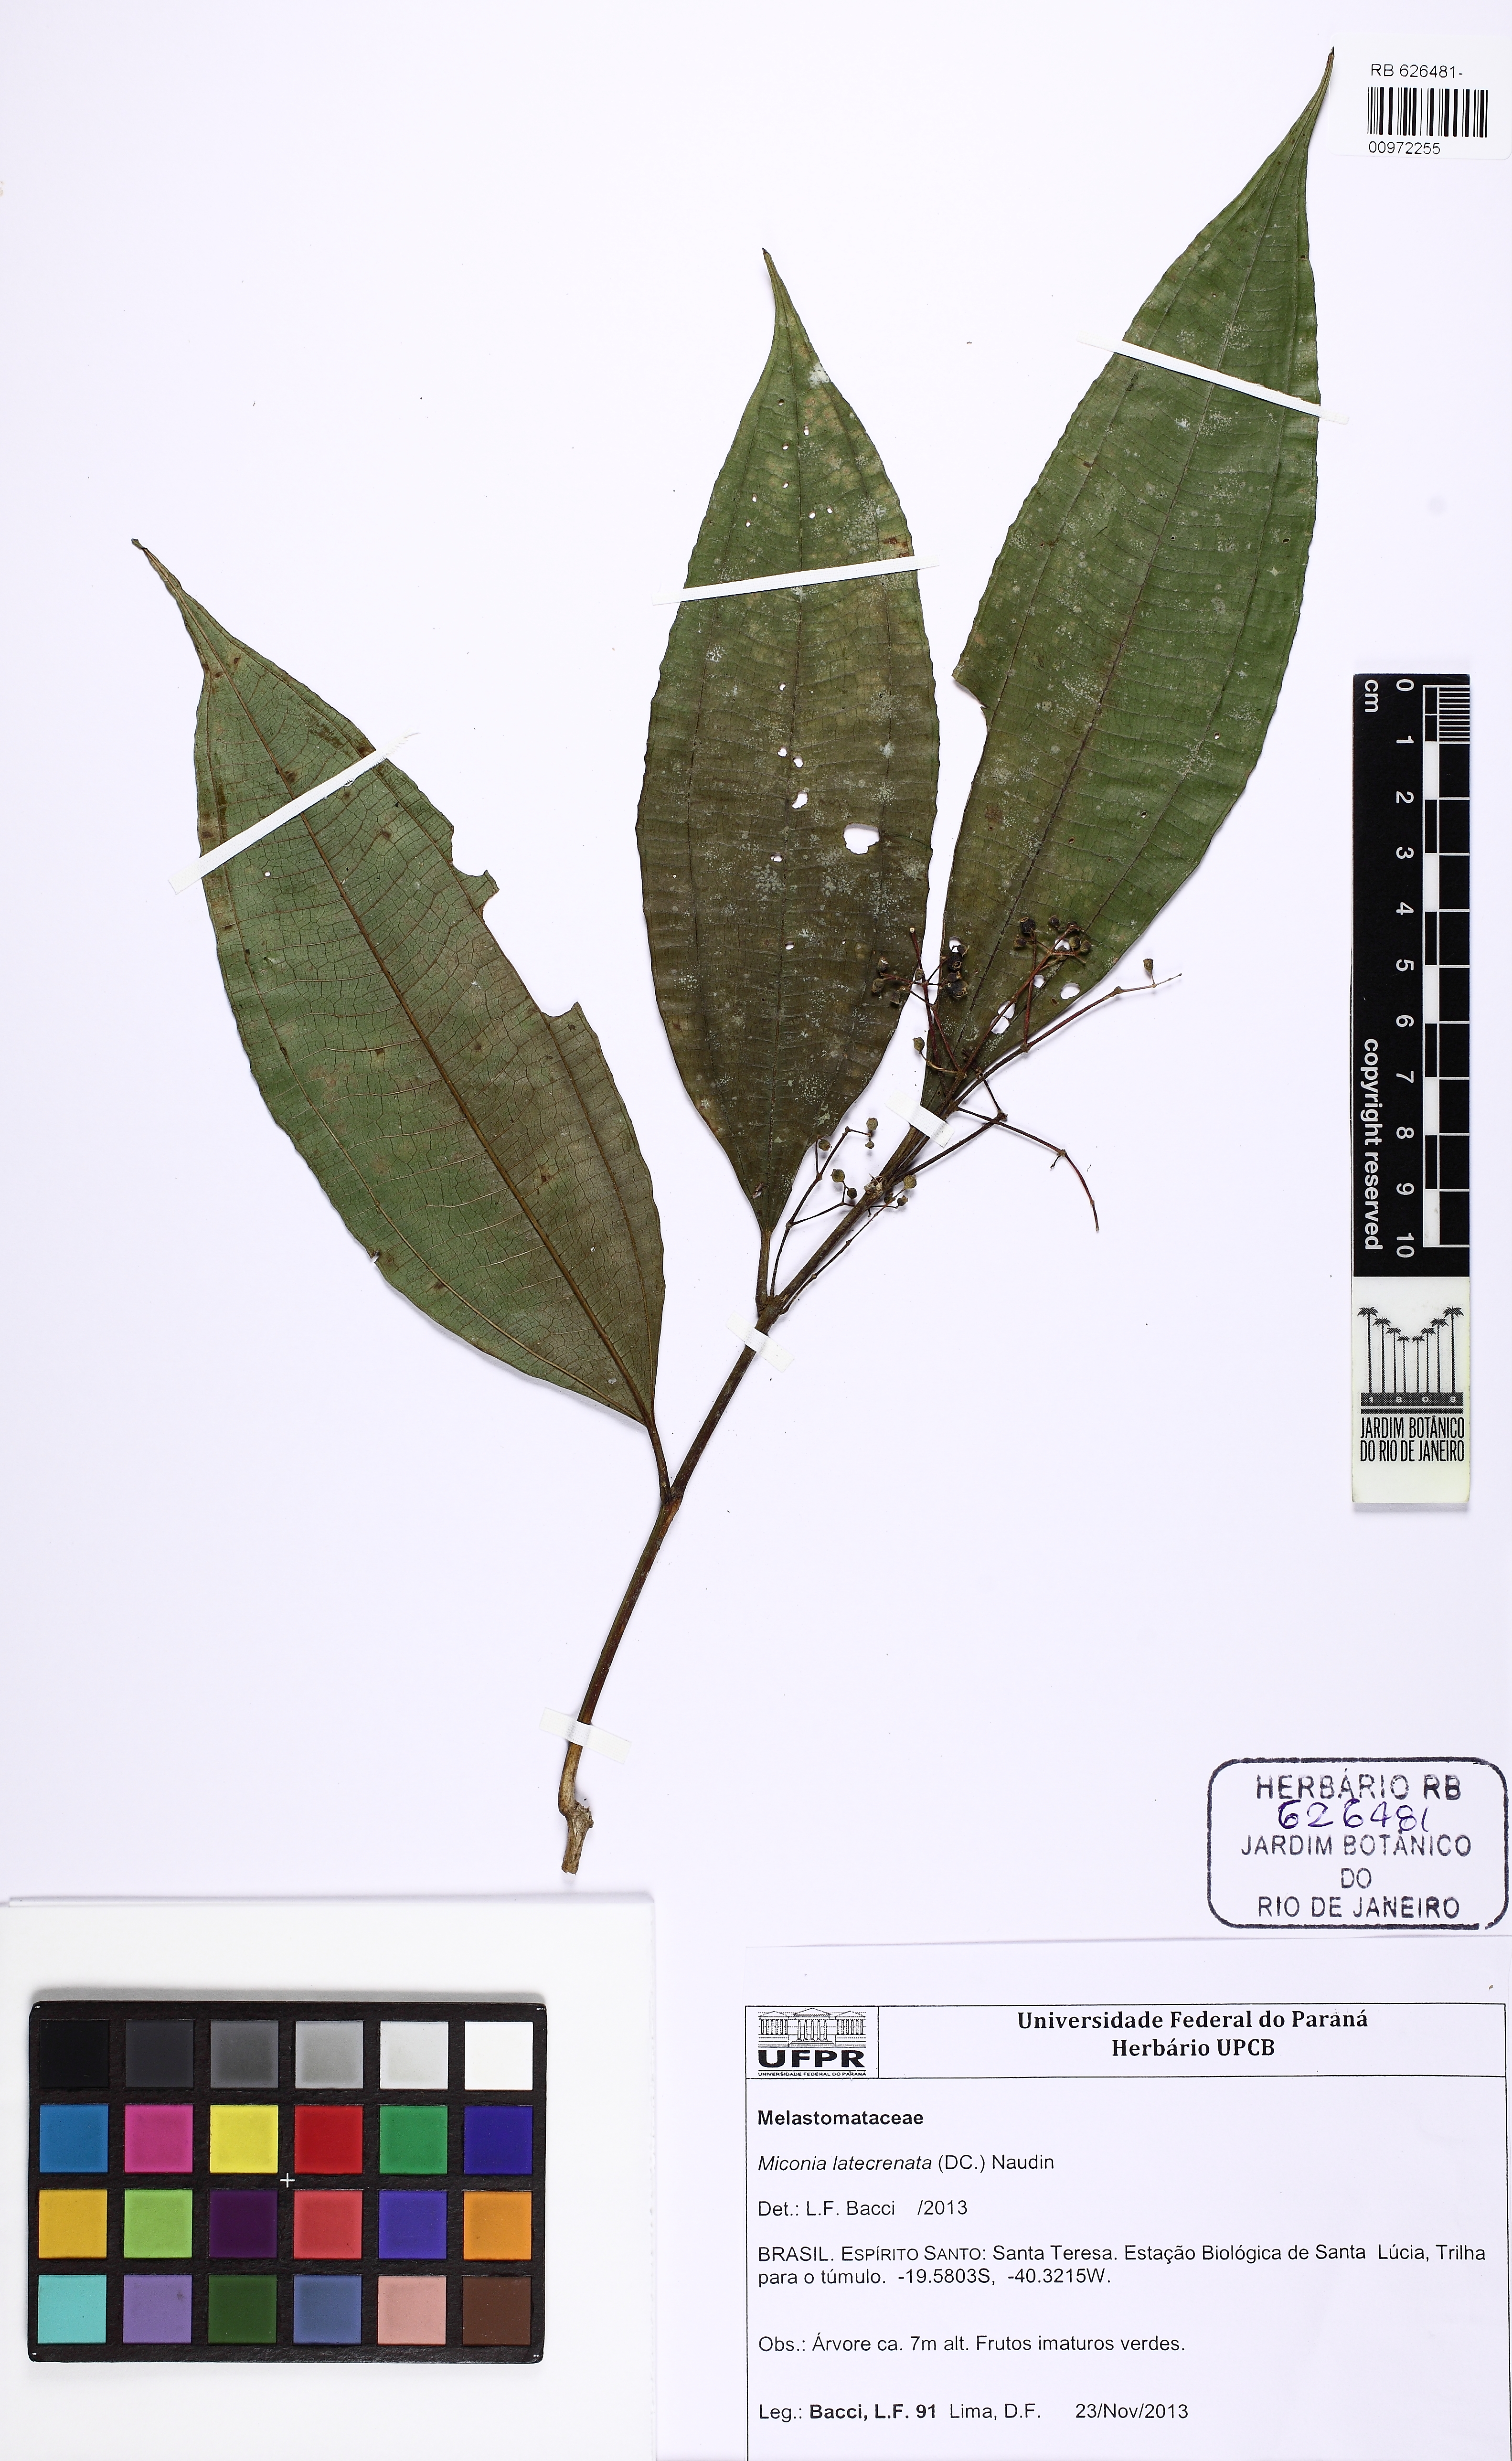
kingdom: Plantae
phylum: Tracheophyta
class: Magnoliopsida
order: Myrtales
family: Melastomataceae
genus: Miconia
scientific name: Miconia latecrenata
